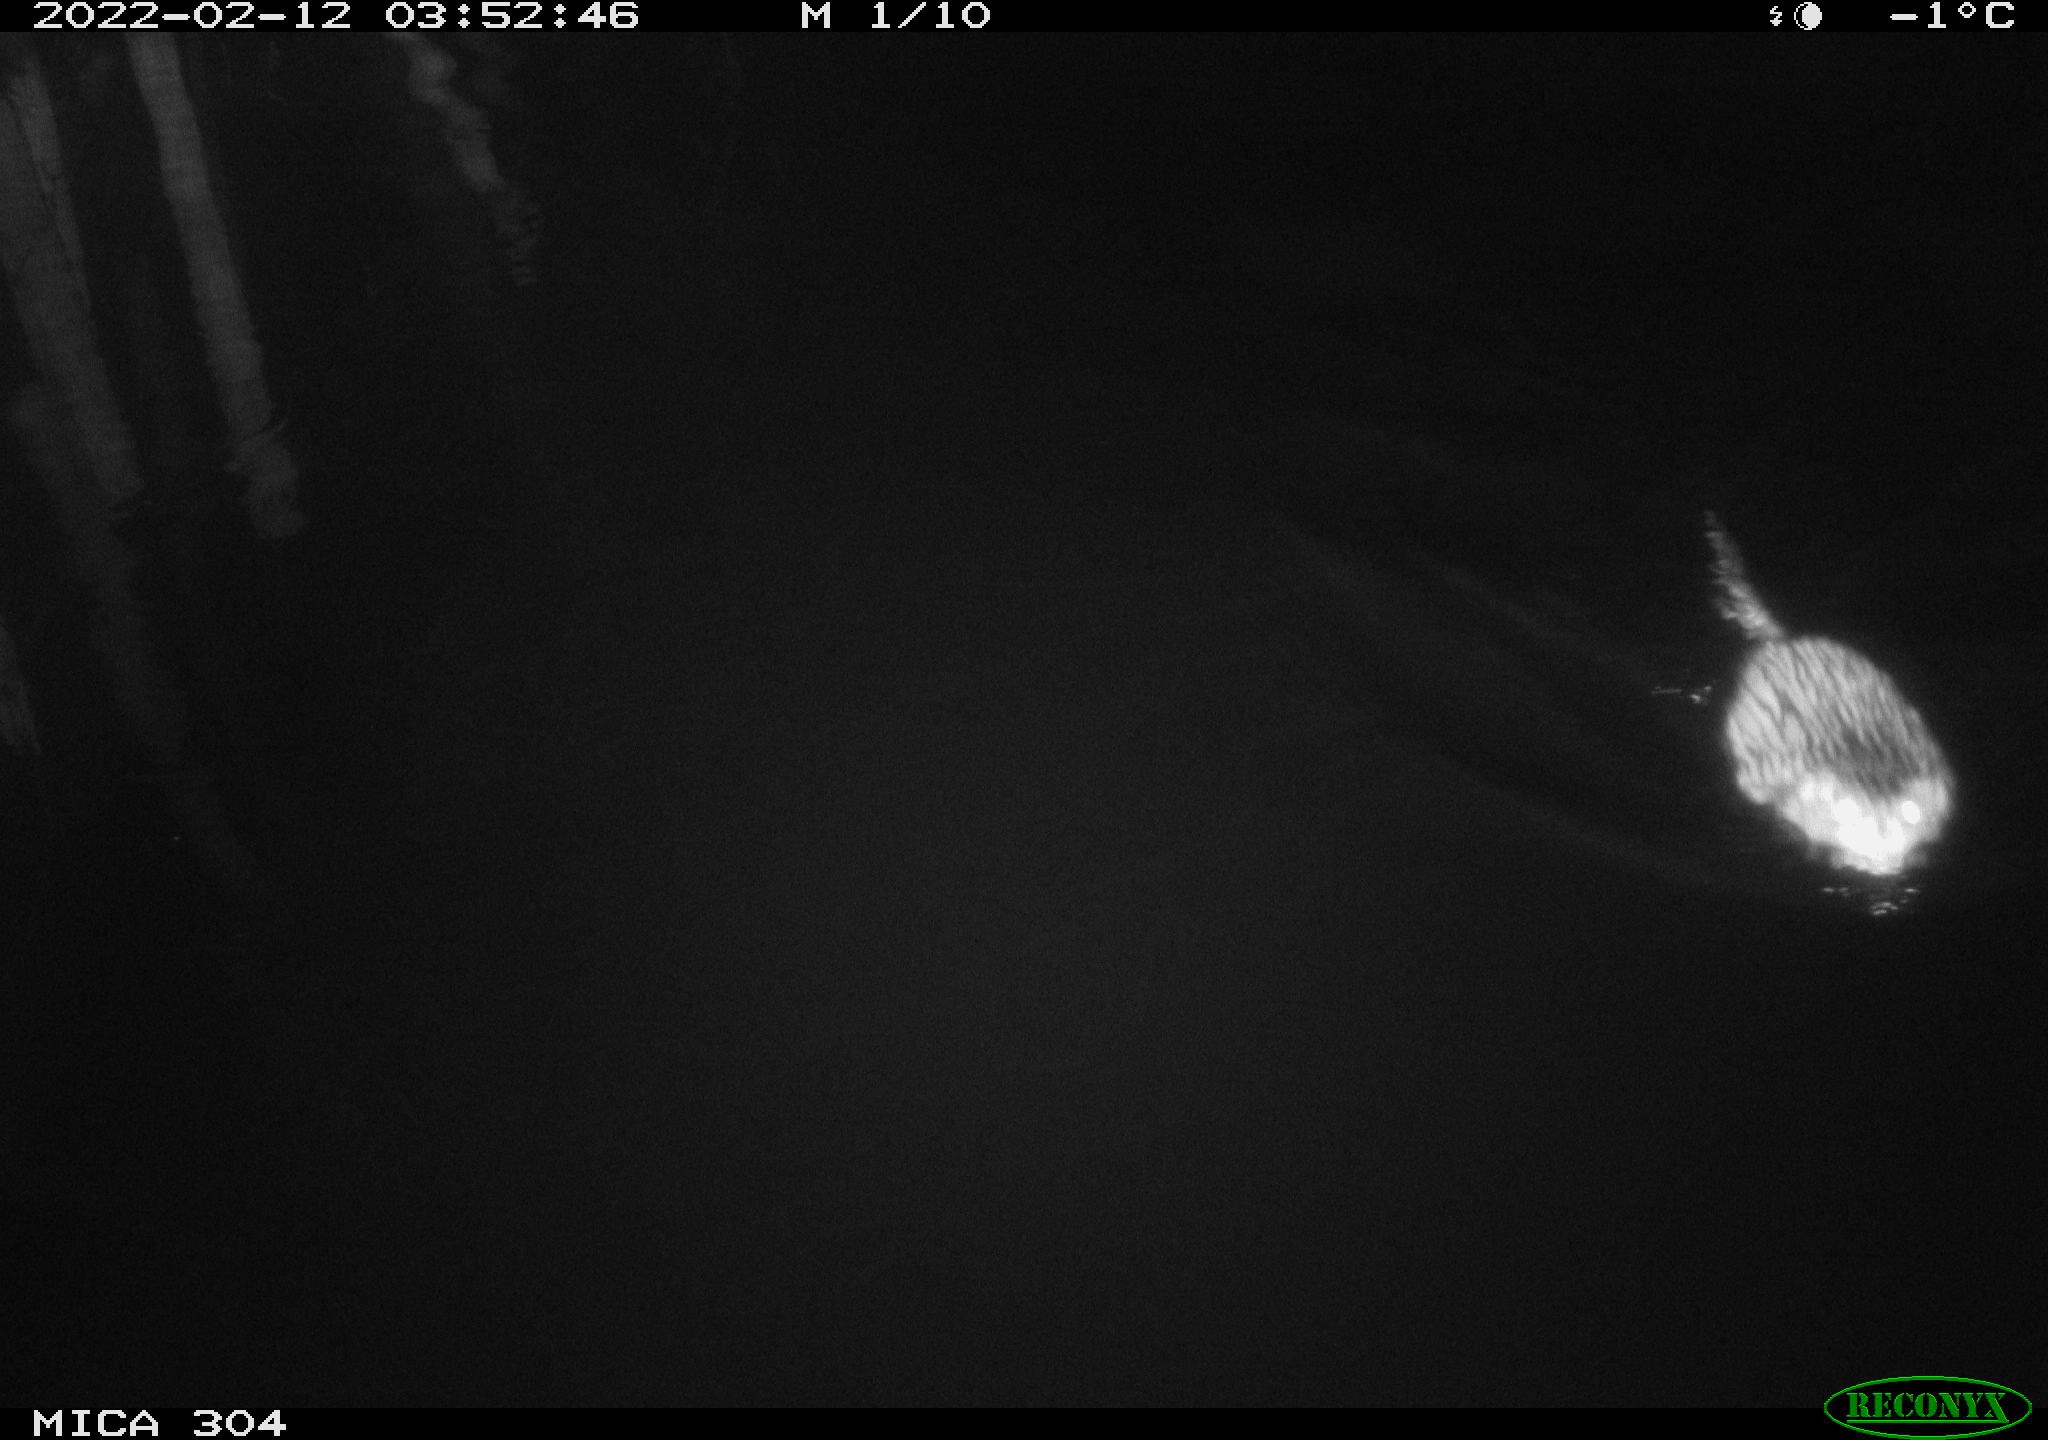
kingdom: Animalia
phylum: Chordata
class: Mammalia
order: Rodentia
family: Cricetidae
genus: Ondatra
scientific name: Ondatra zibethicus
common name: Muskrat
